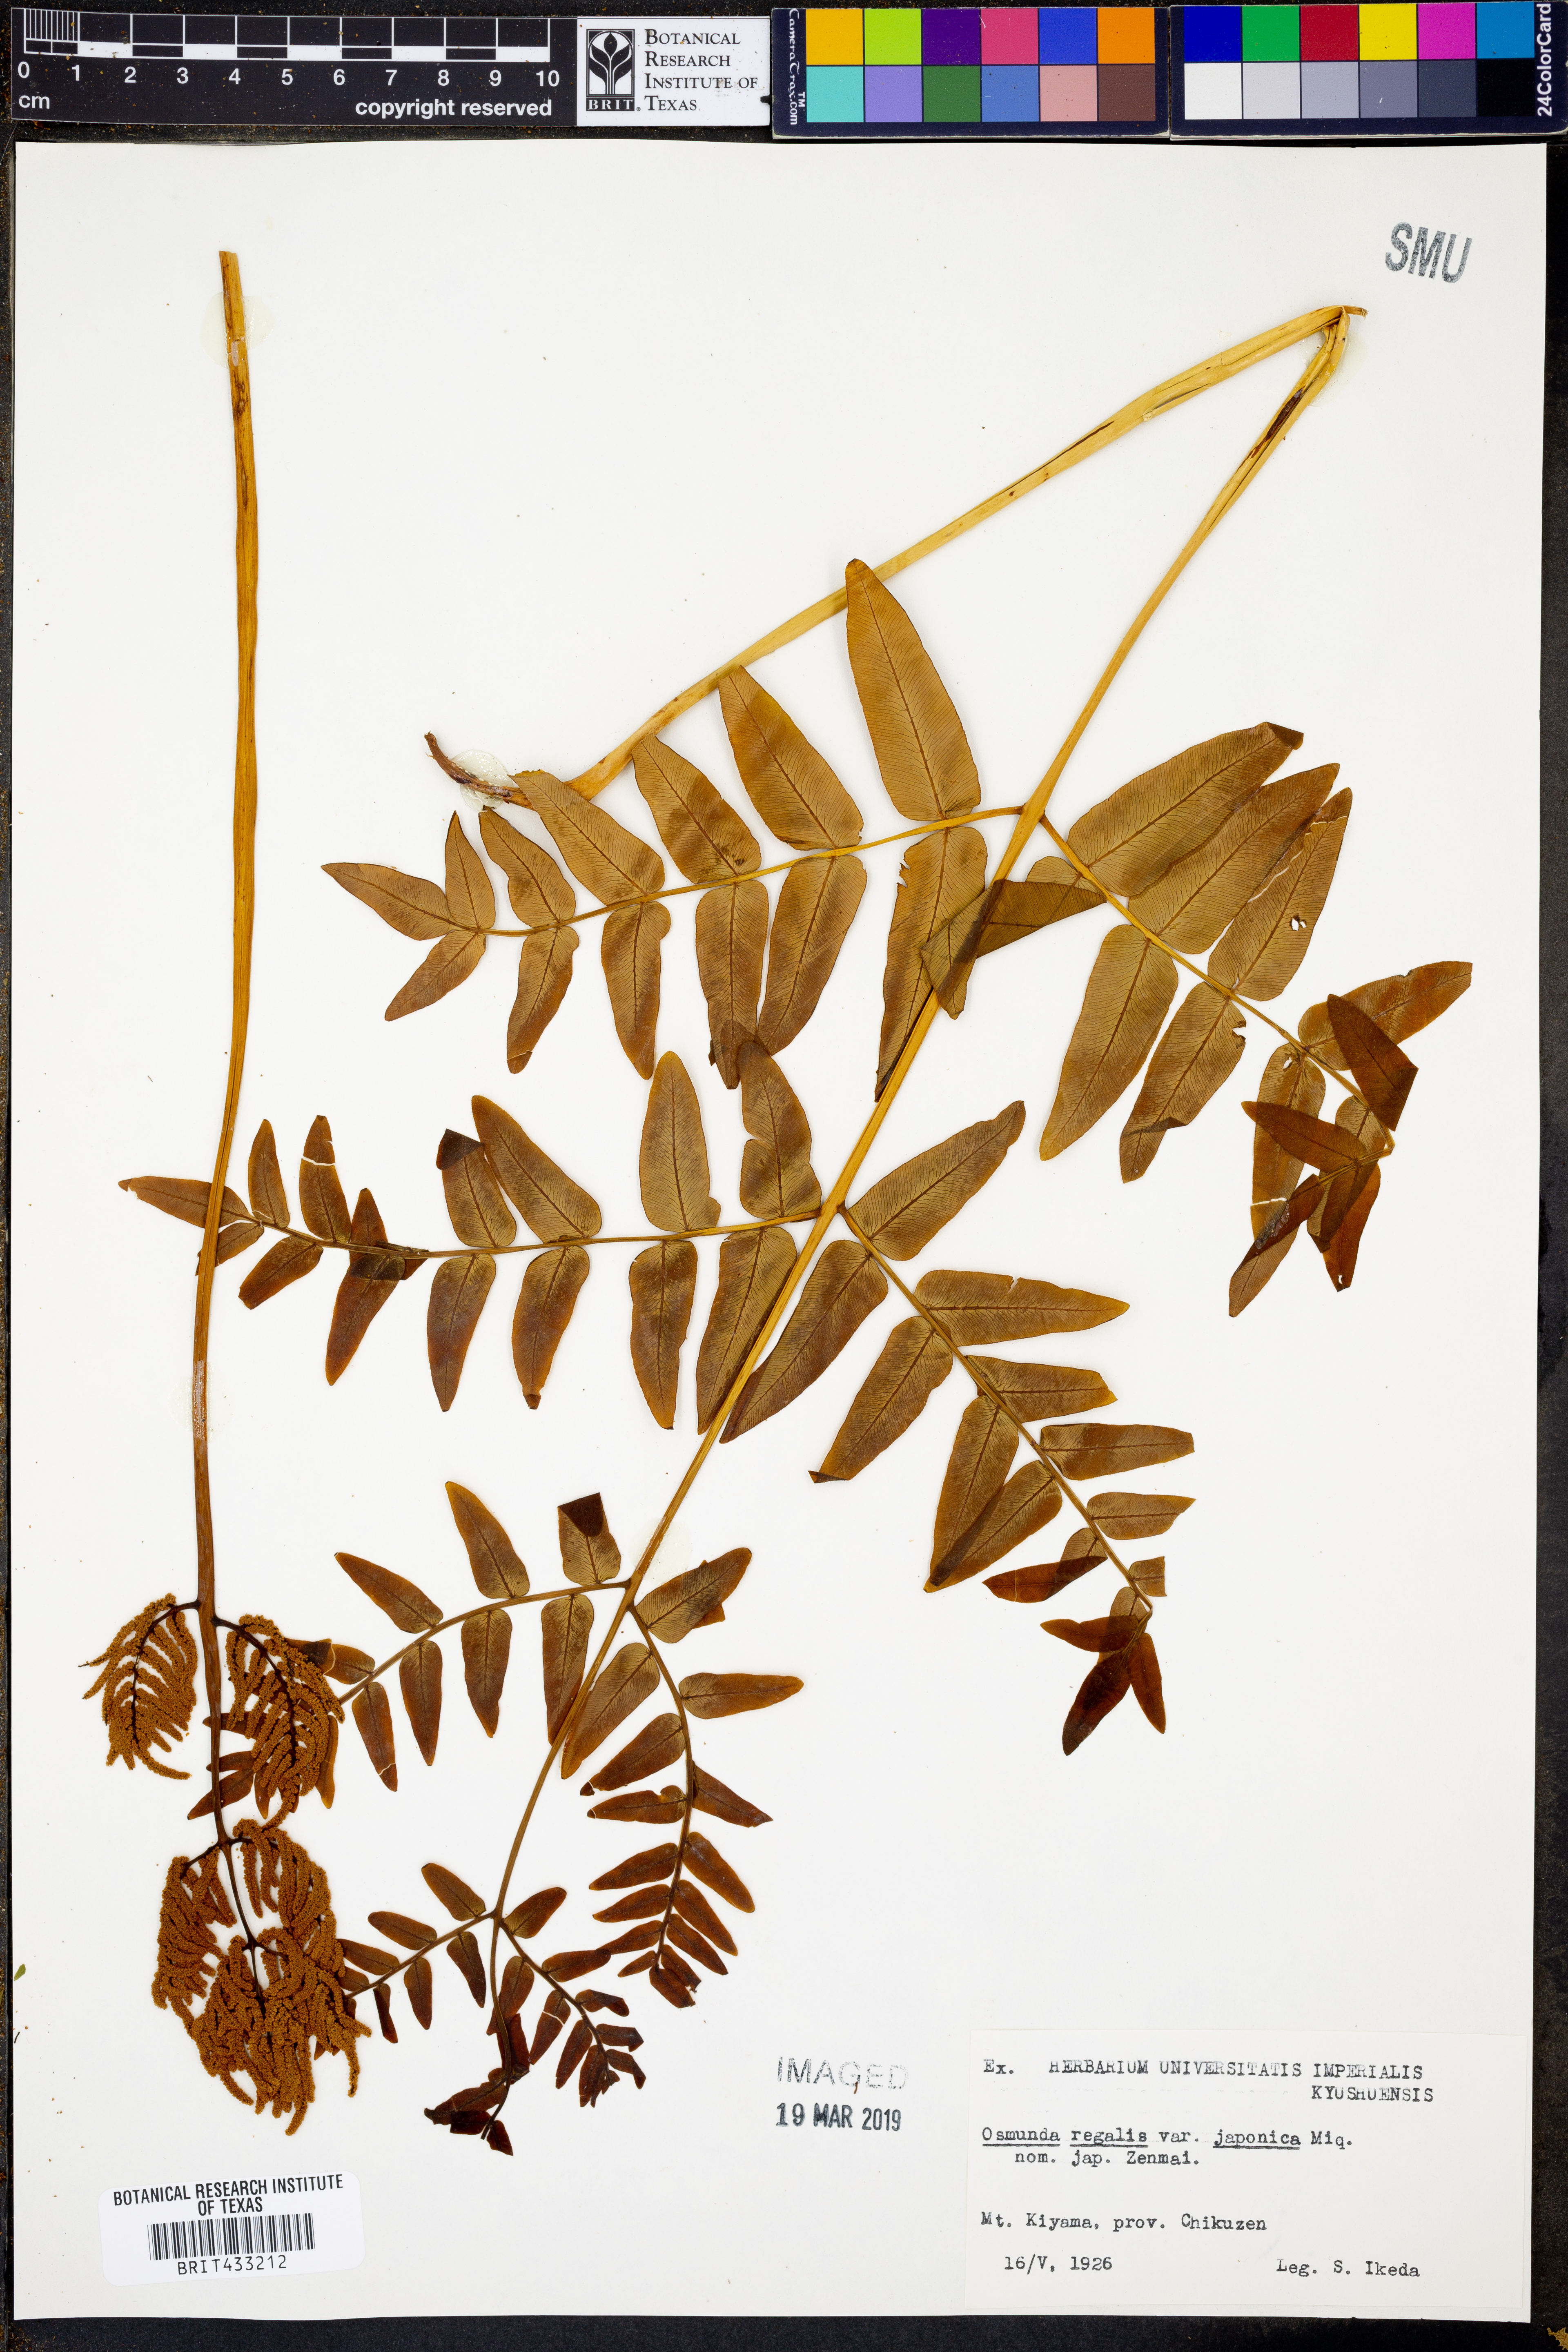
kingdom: Plantae
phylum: Tracheophyta
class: Polypodiopsida
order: Osmundales
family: Osmundaceae
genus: Osmunda
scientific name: Osmunda japonica
